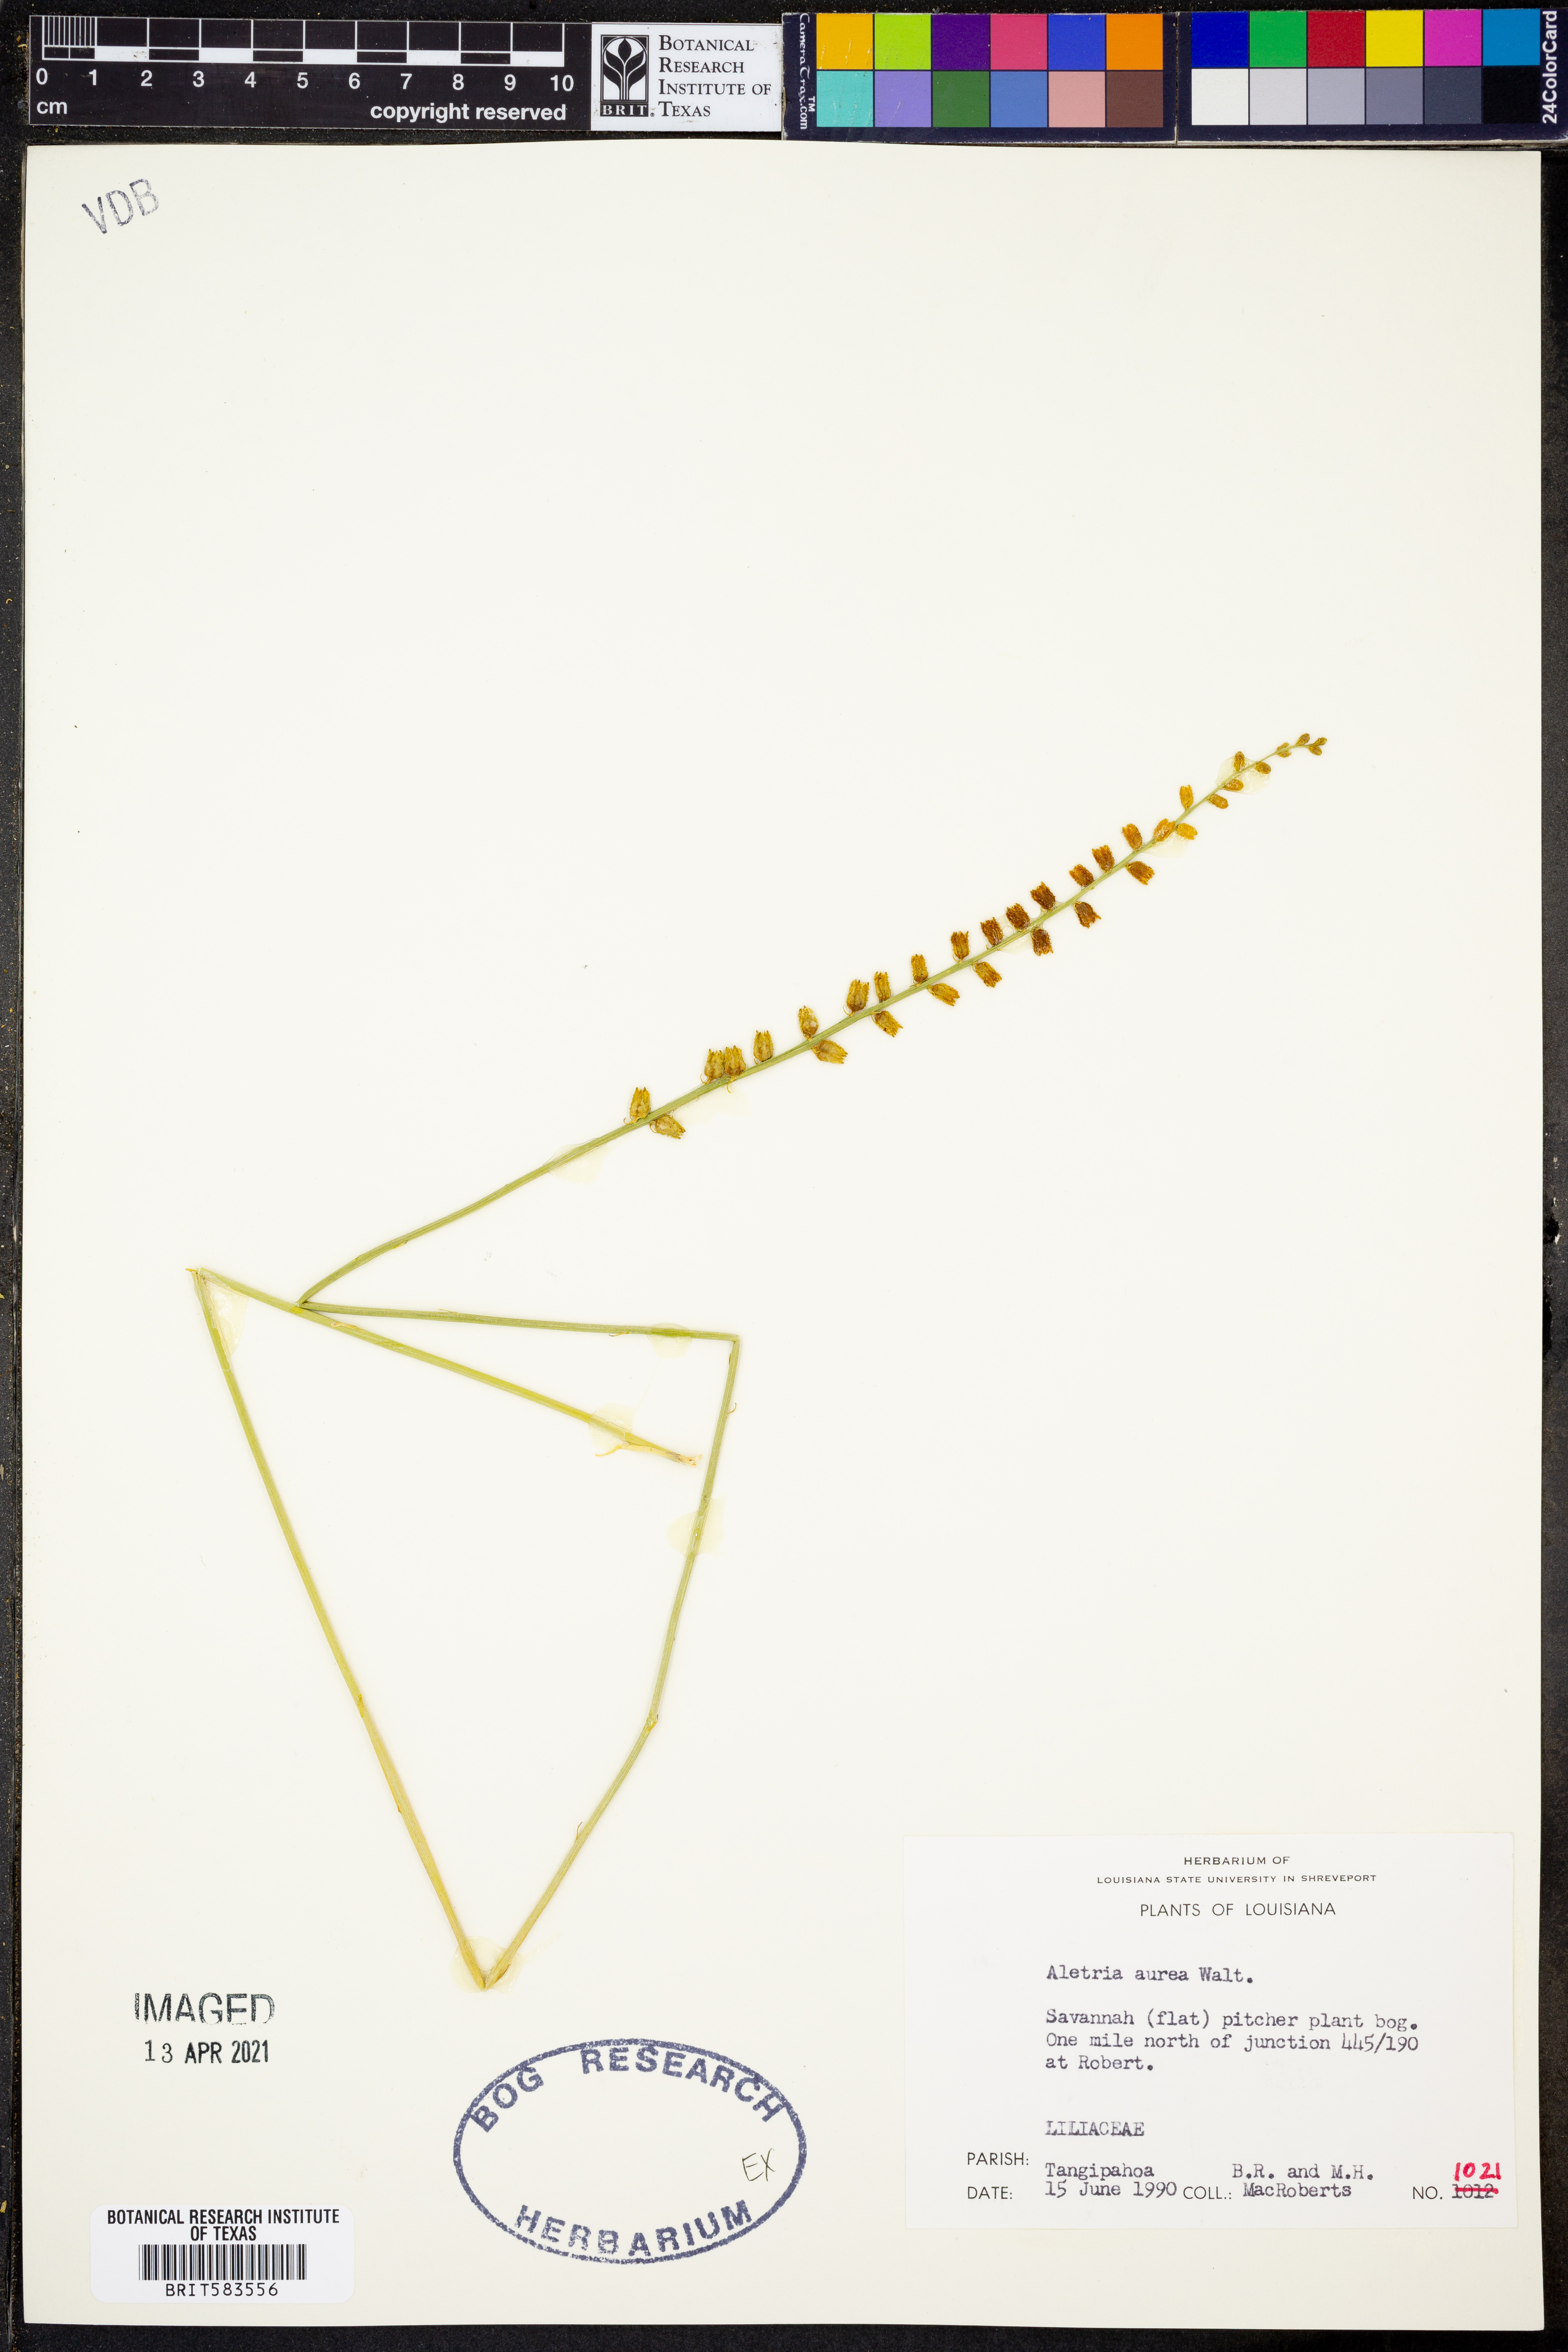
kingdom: Plantae
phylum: Tracheophyta
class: Liliopsida
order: Dioscoreales
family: Nartheciaceae
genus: Aletris
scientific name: Aletris aurea
